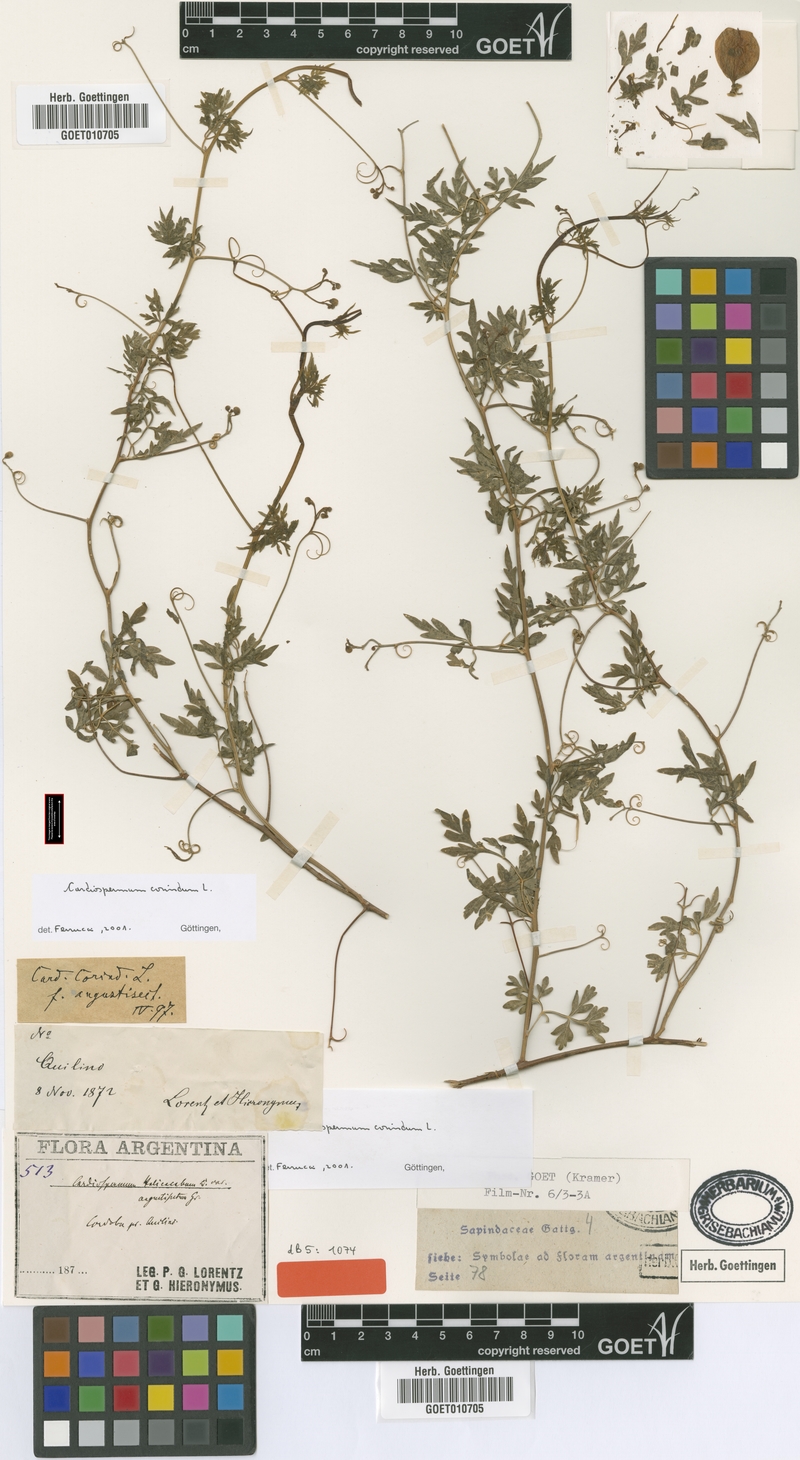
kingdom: Plantae
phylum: Tracheophyta
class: Magnoliopsida
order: Sapindales
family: Sapindaceae
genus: Cardiospermum
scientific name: Cardiospermum corindum
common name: Faux persil
